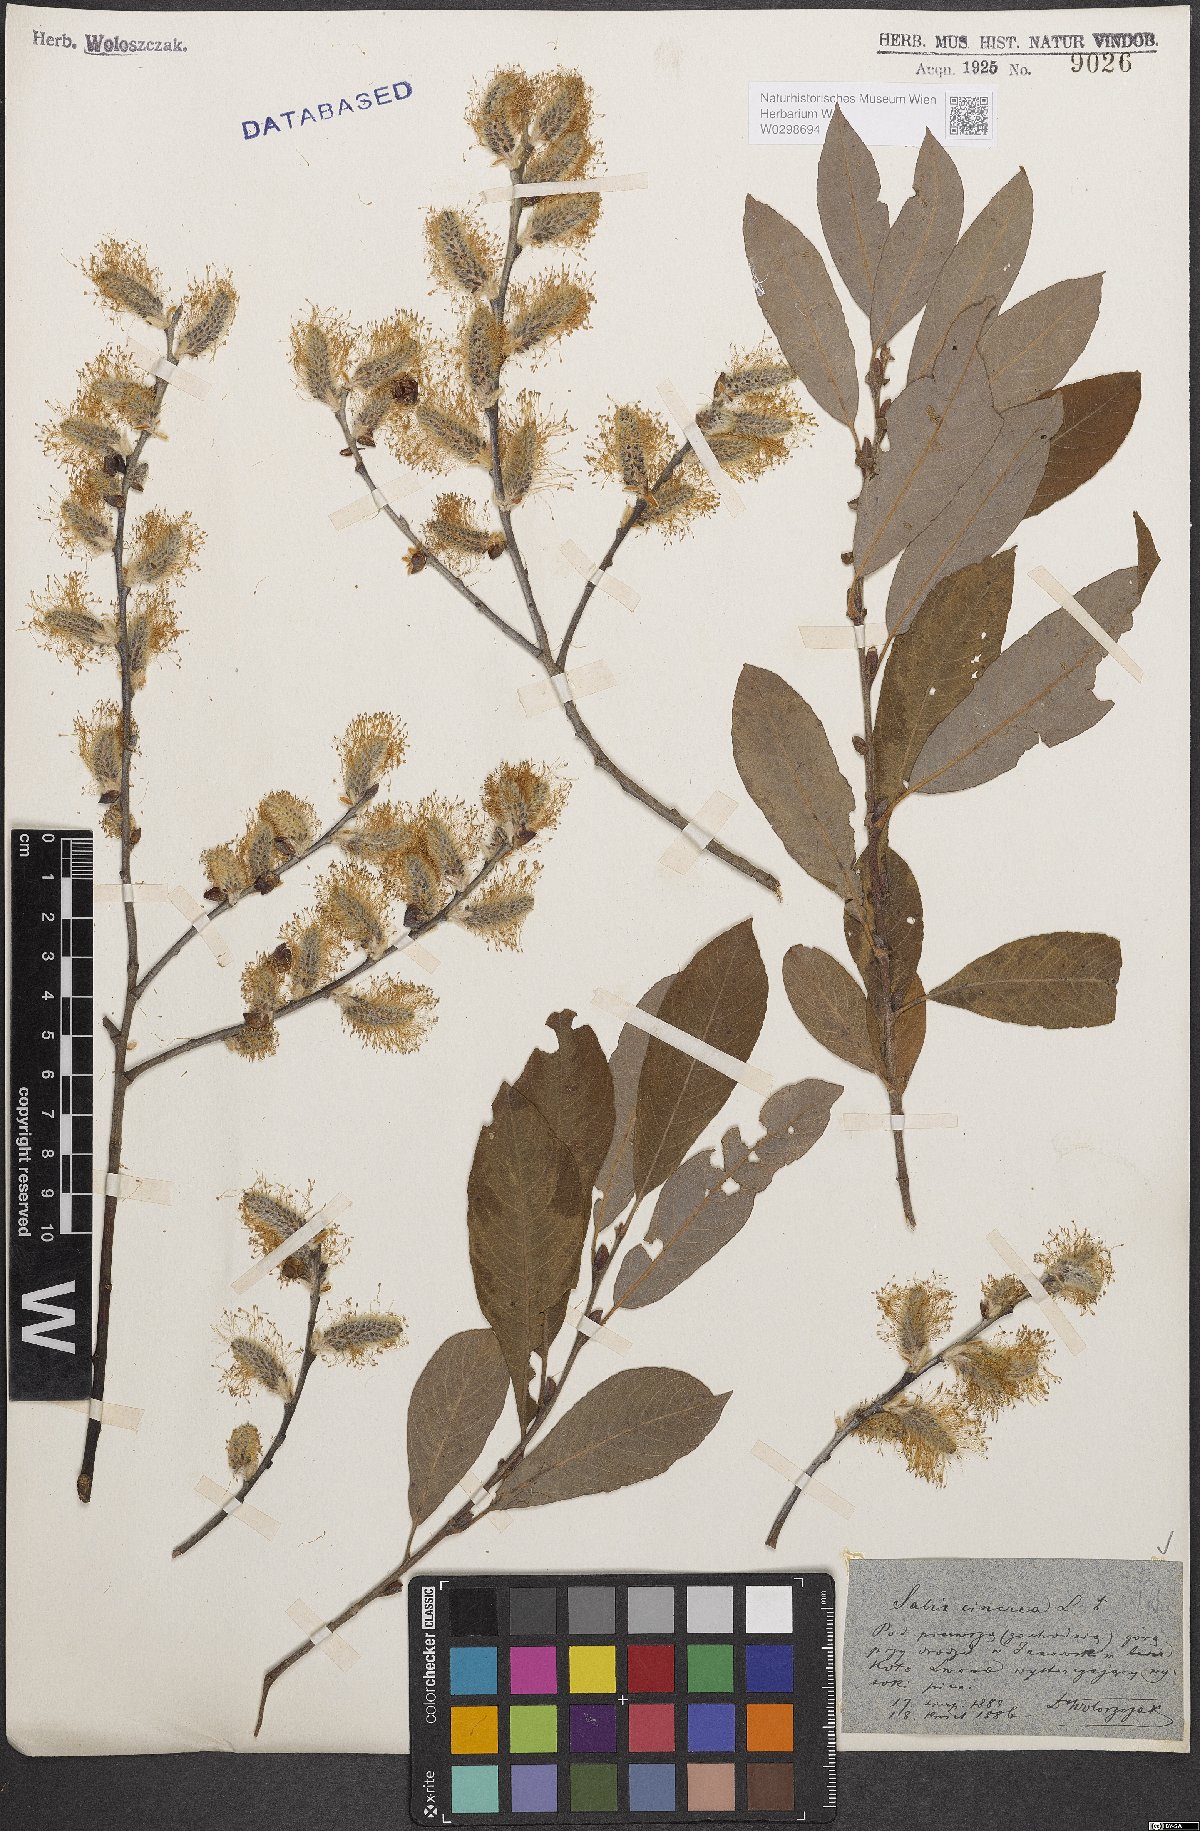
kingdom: Plantae
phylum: Tracheophyta
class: Magnoliopsida
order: Malpighiales
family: Salicaceae
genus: Salix
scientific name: Salix cinerea
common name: Common sallow
